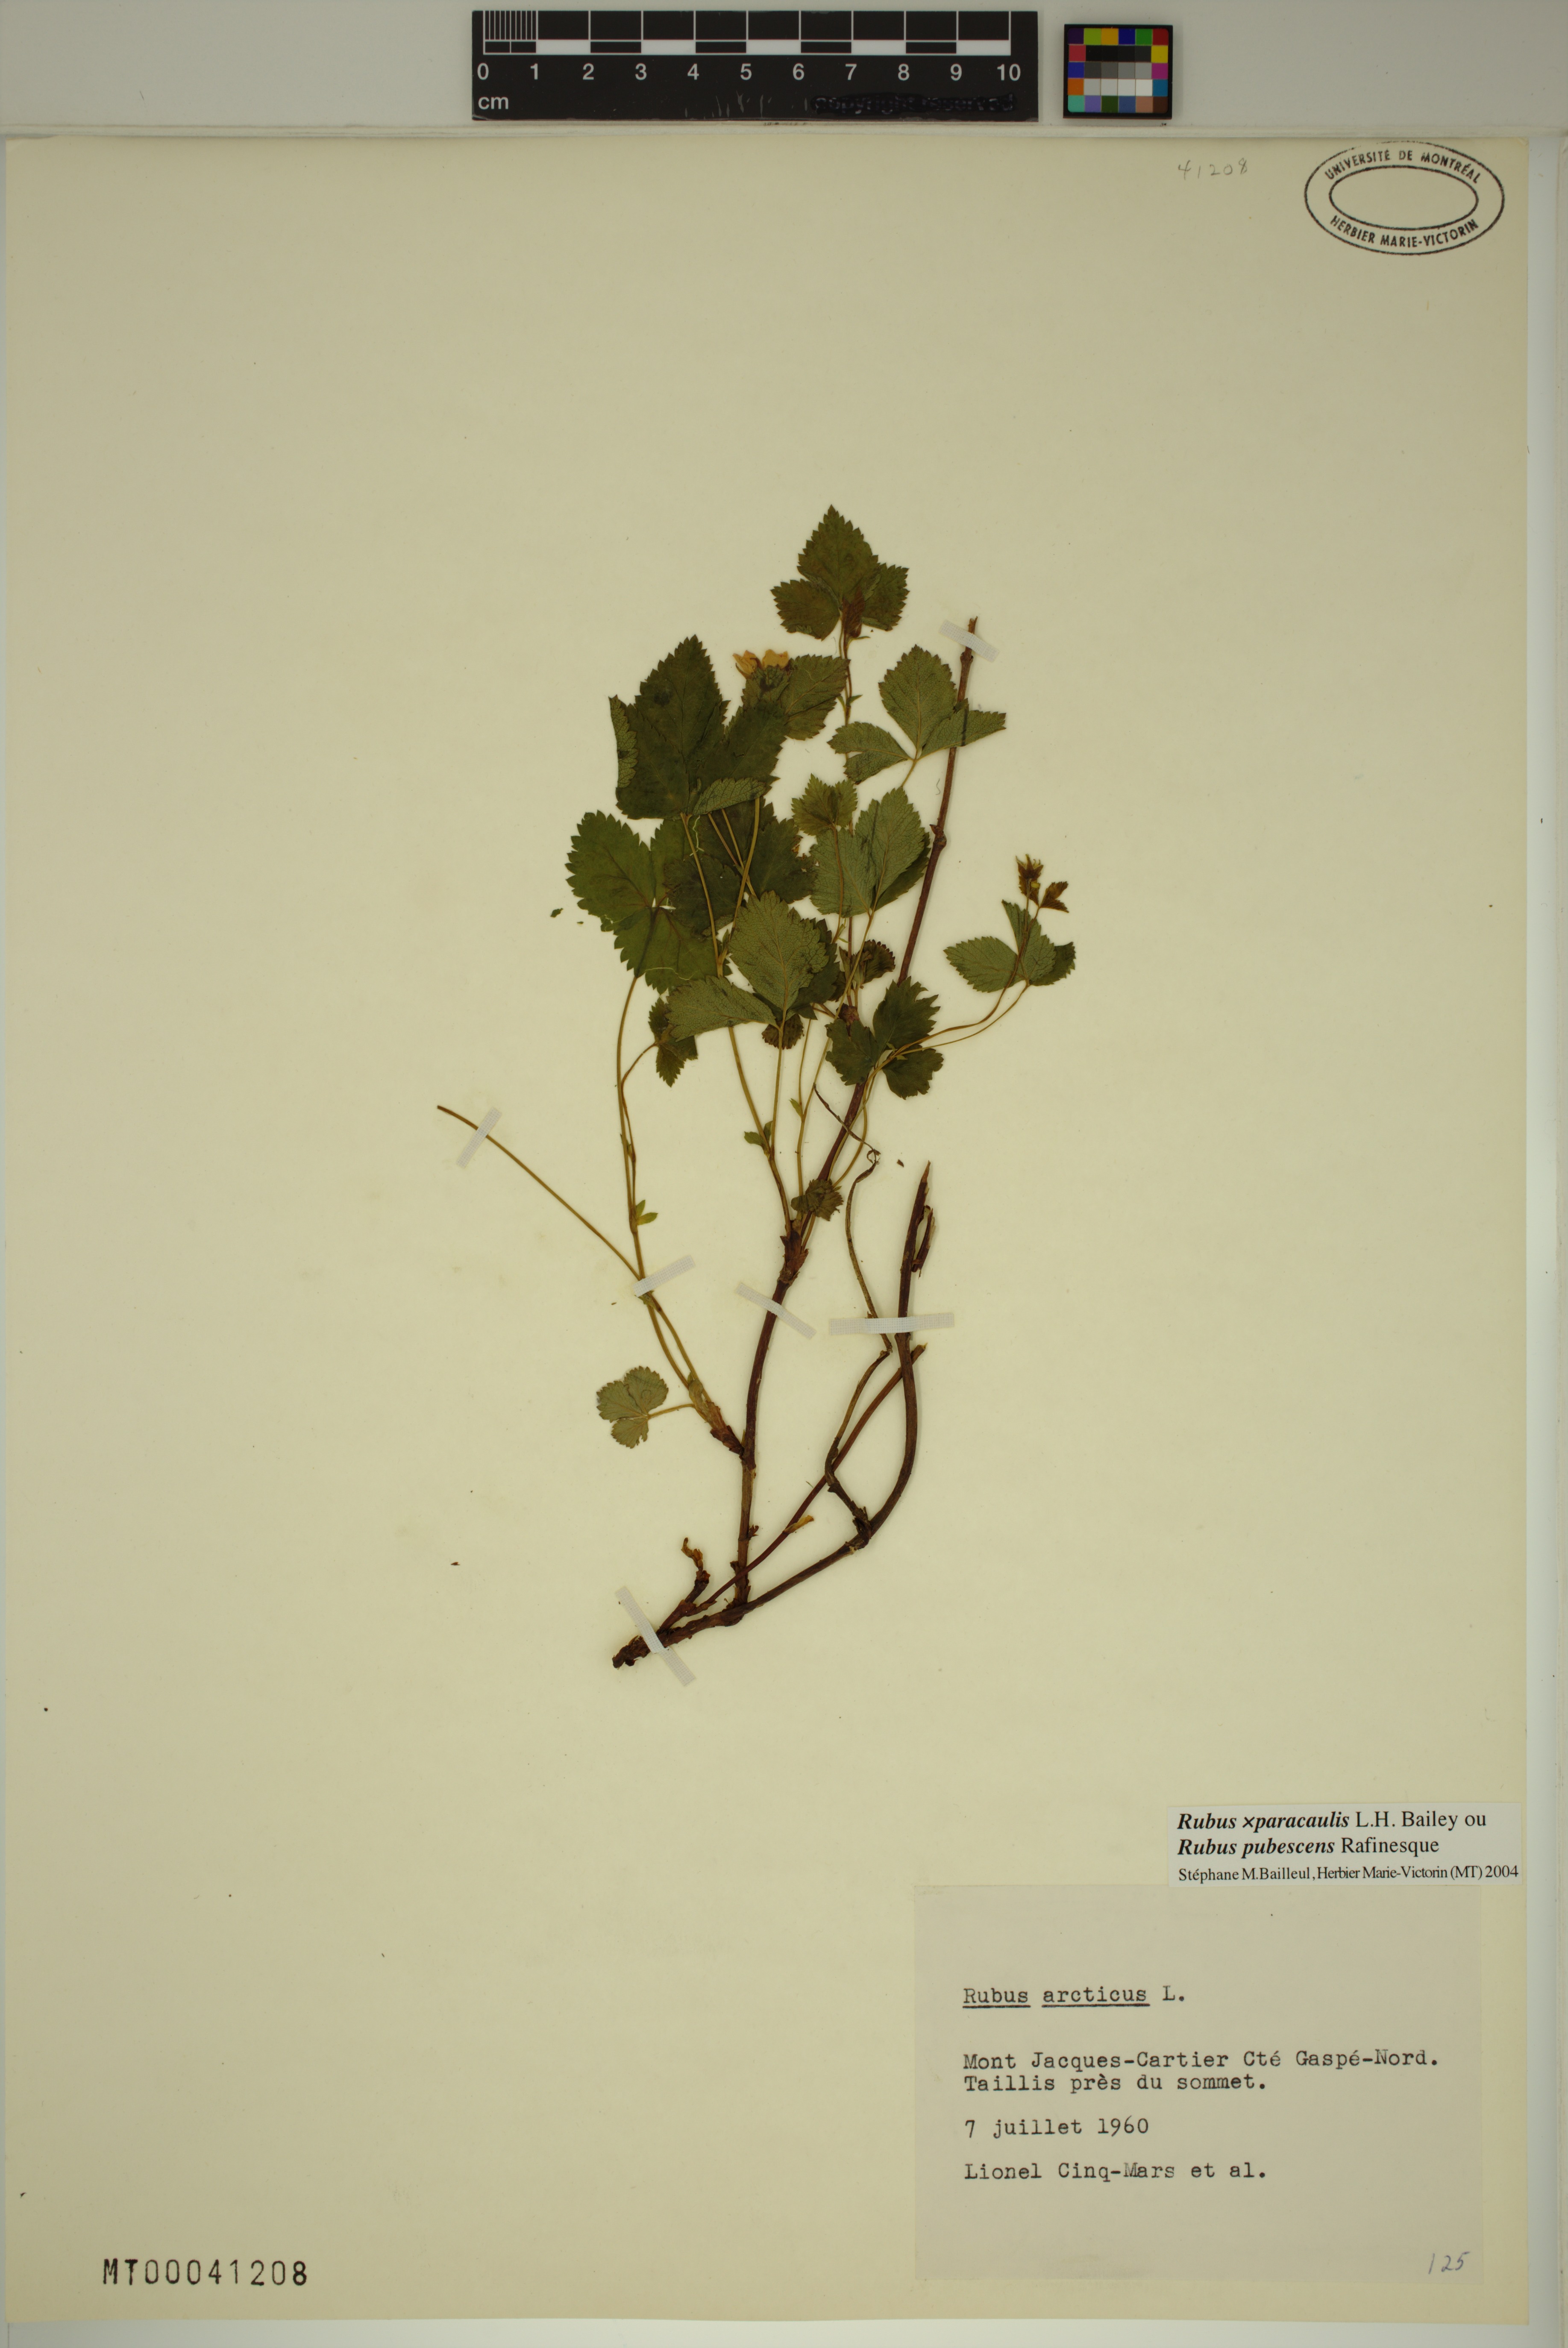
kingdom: Plantae
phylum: Tracheophyta
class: Magnoliopsida
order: Rosales
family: Rosaceae
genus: Rubus
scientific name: Rubus paracaulis
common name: Dwarf white-flowered raspberry
